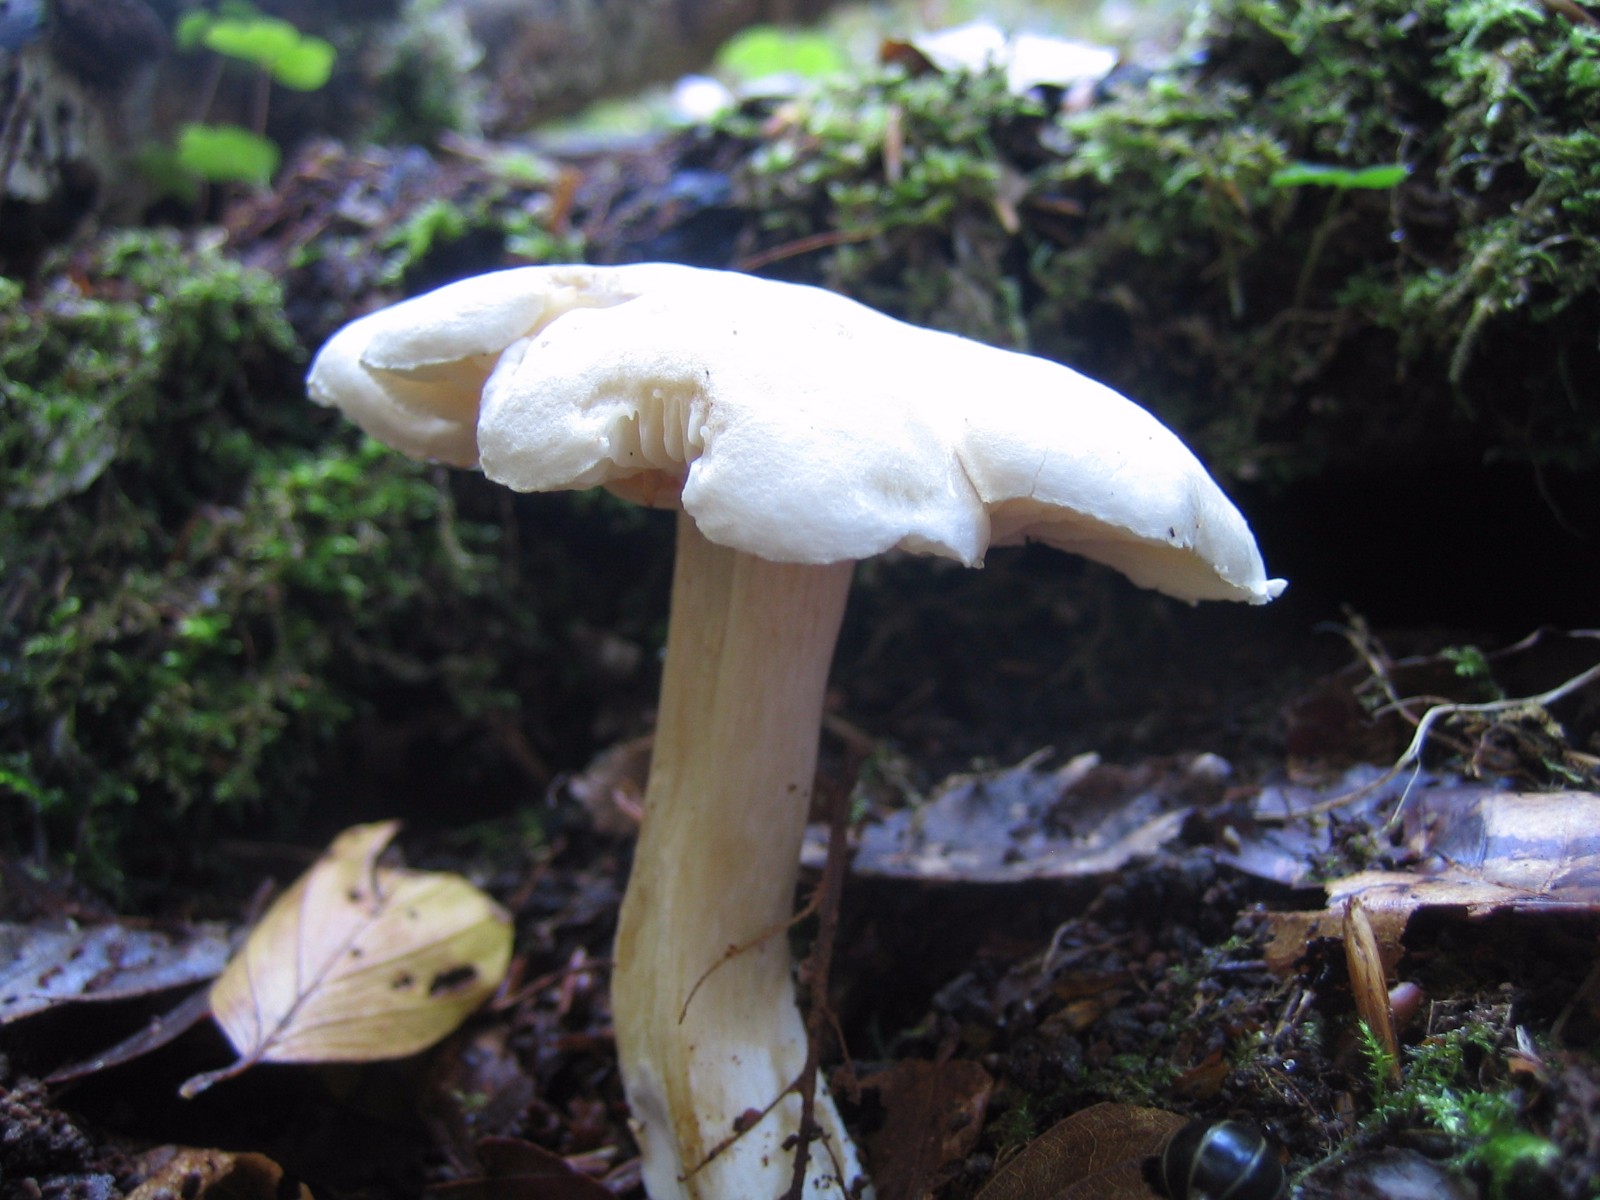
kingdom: Fungi
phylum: Basidiomycota
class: Agaricomycetes
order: Agaricales
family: Tricholomataceae
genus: Tricholoma
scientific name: Tricholoma
